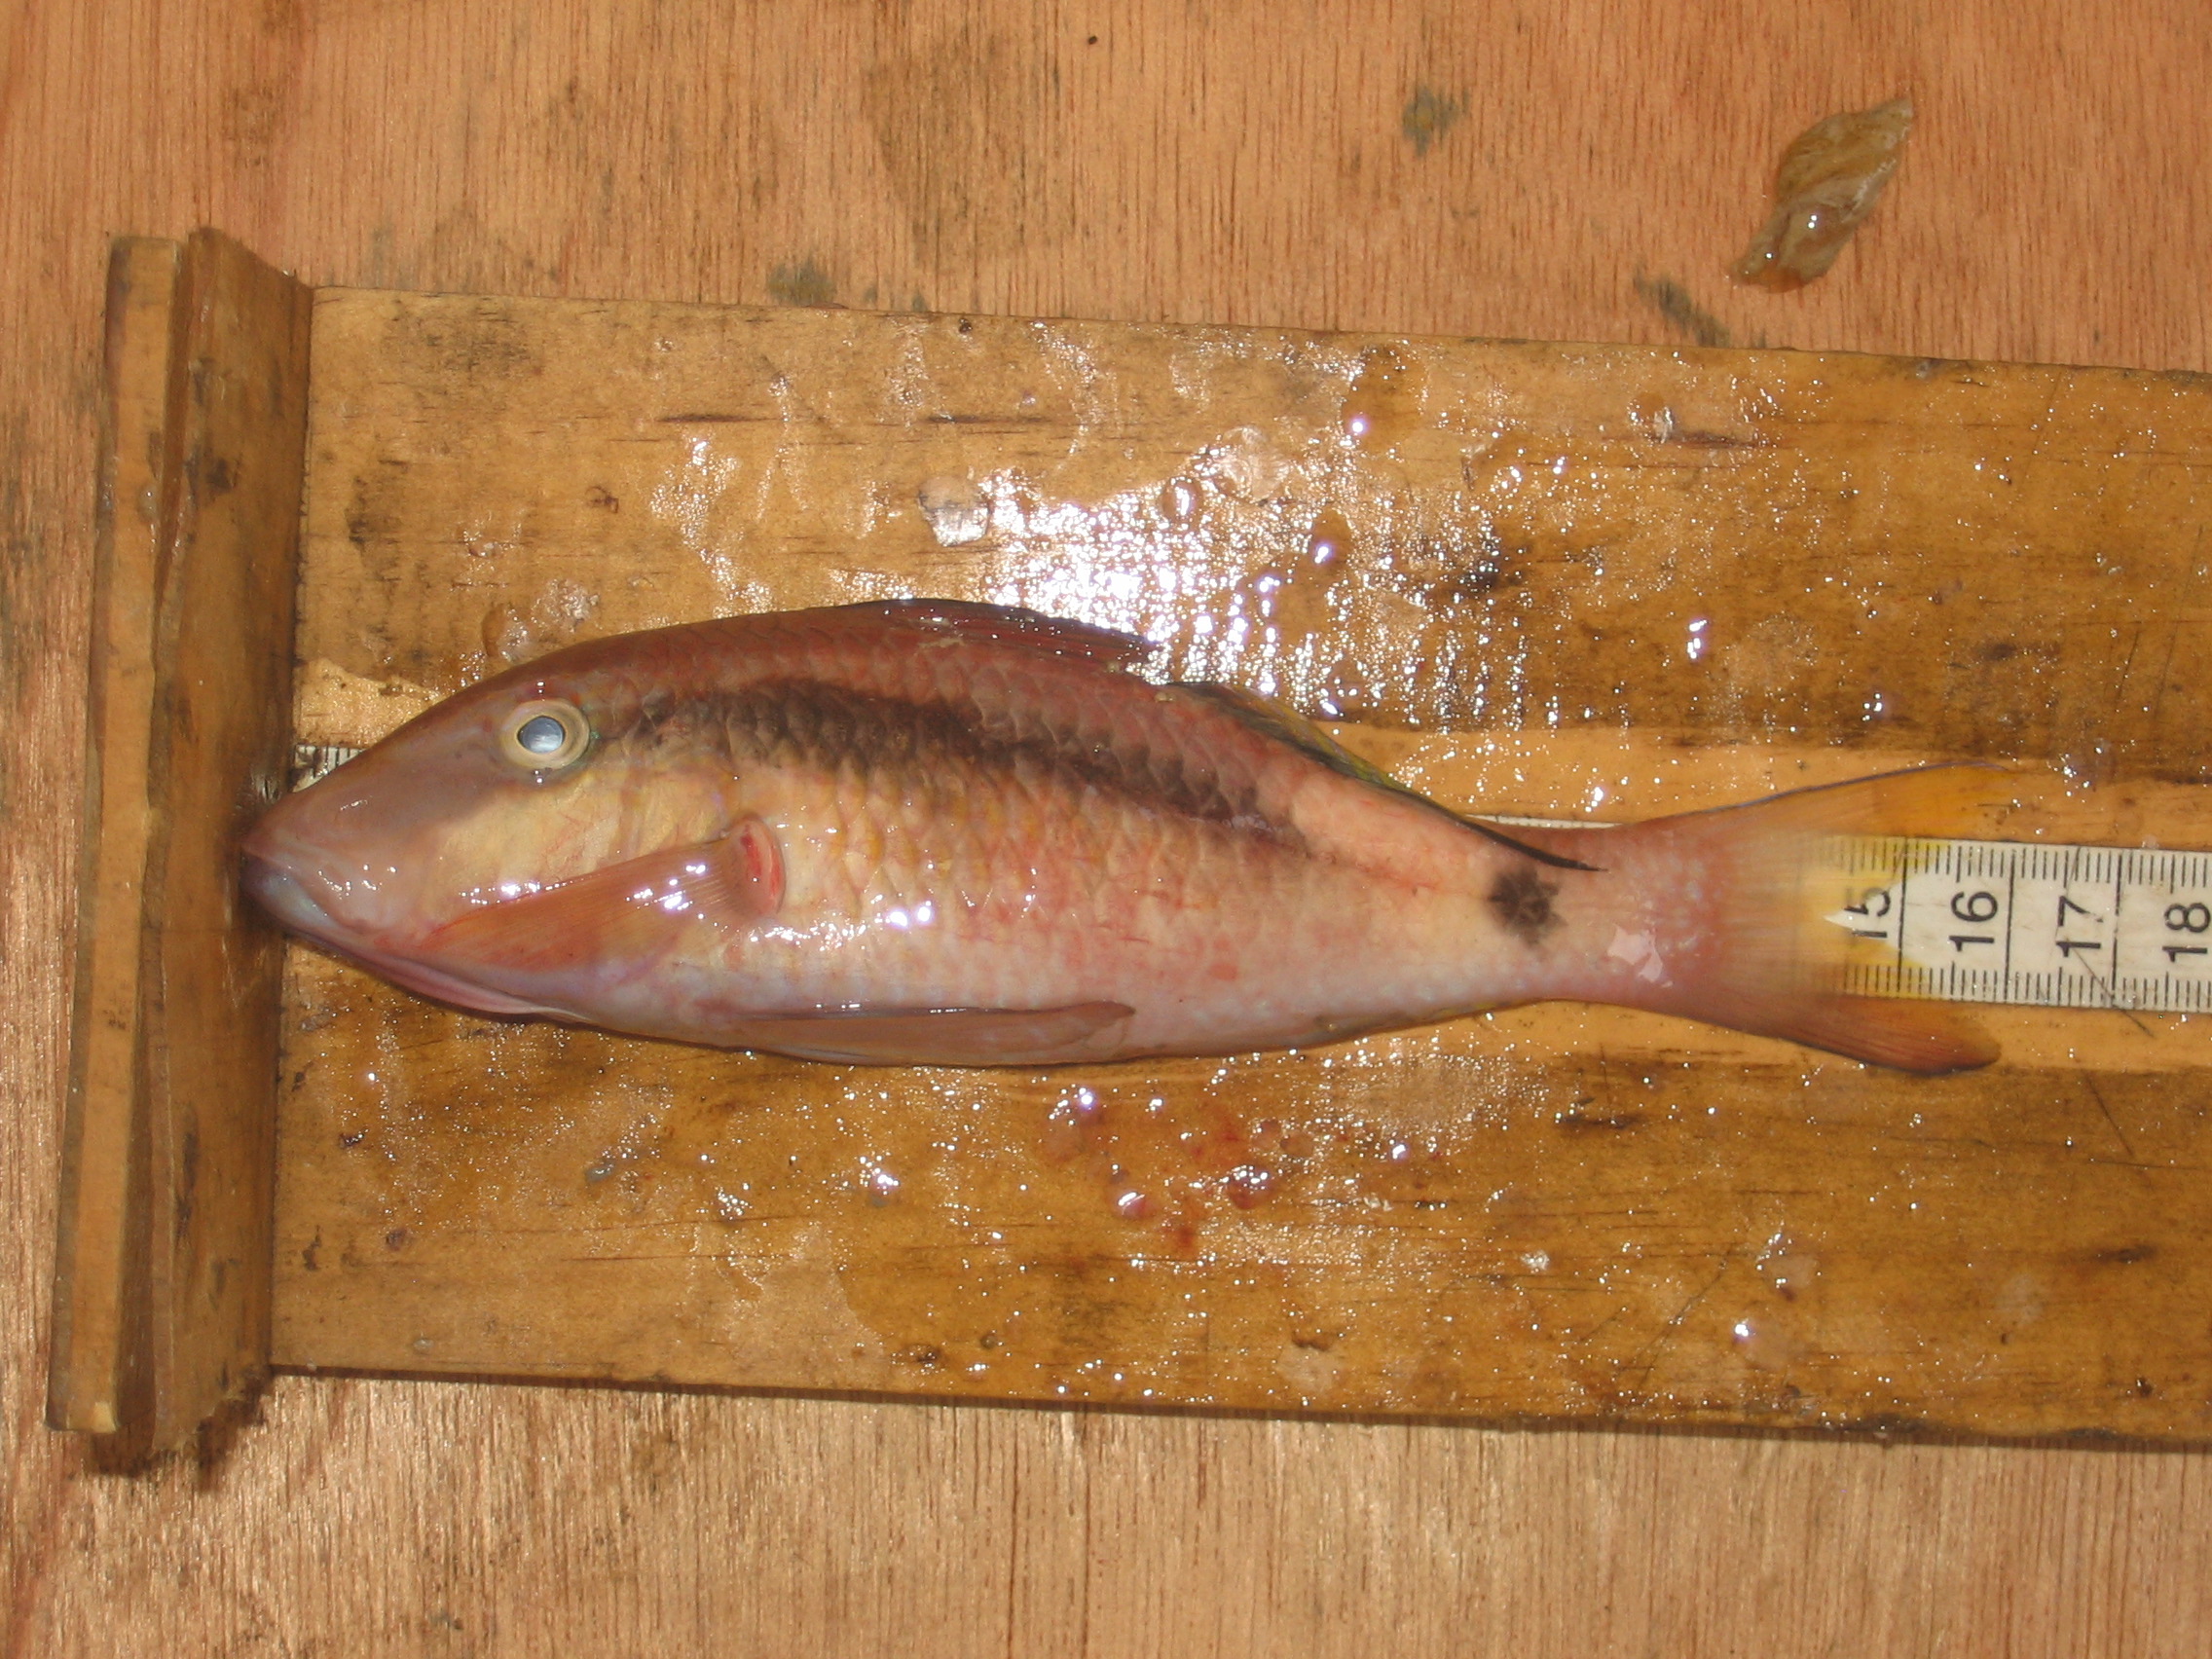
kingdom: Animalia
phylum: Chordata
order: Perciformes
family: Mullidae
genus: Parupeneus
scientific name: Parupeneus barberinus
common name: Dash-and-dot goatfish
